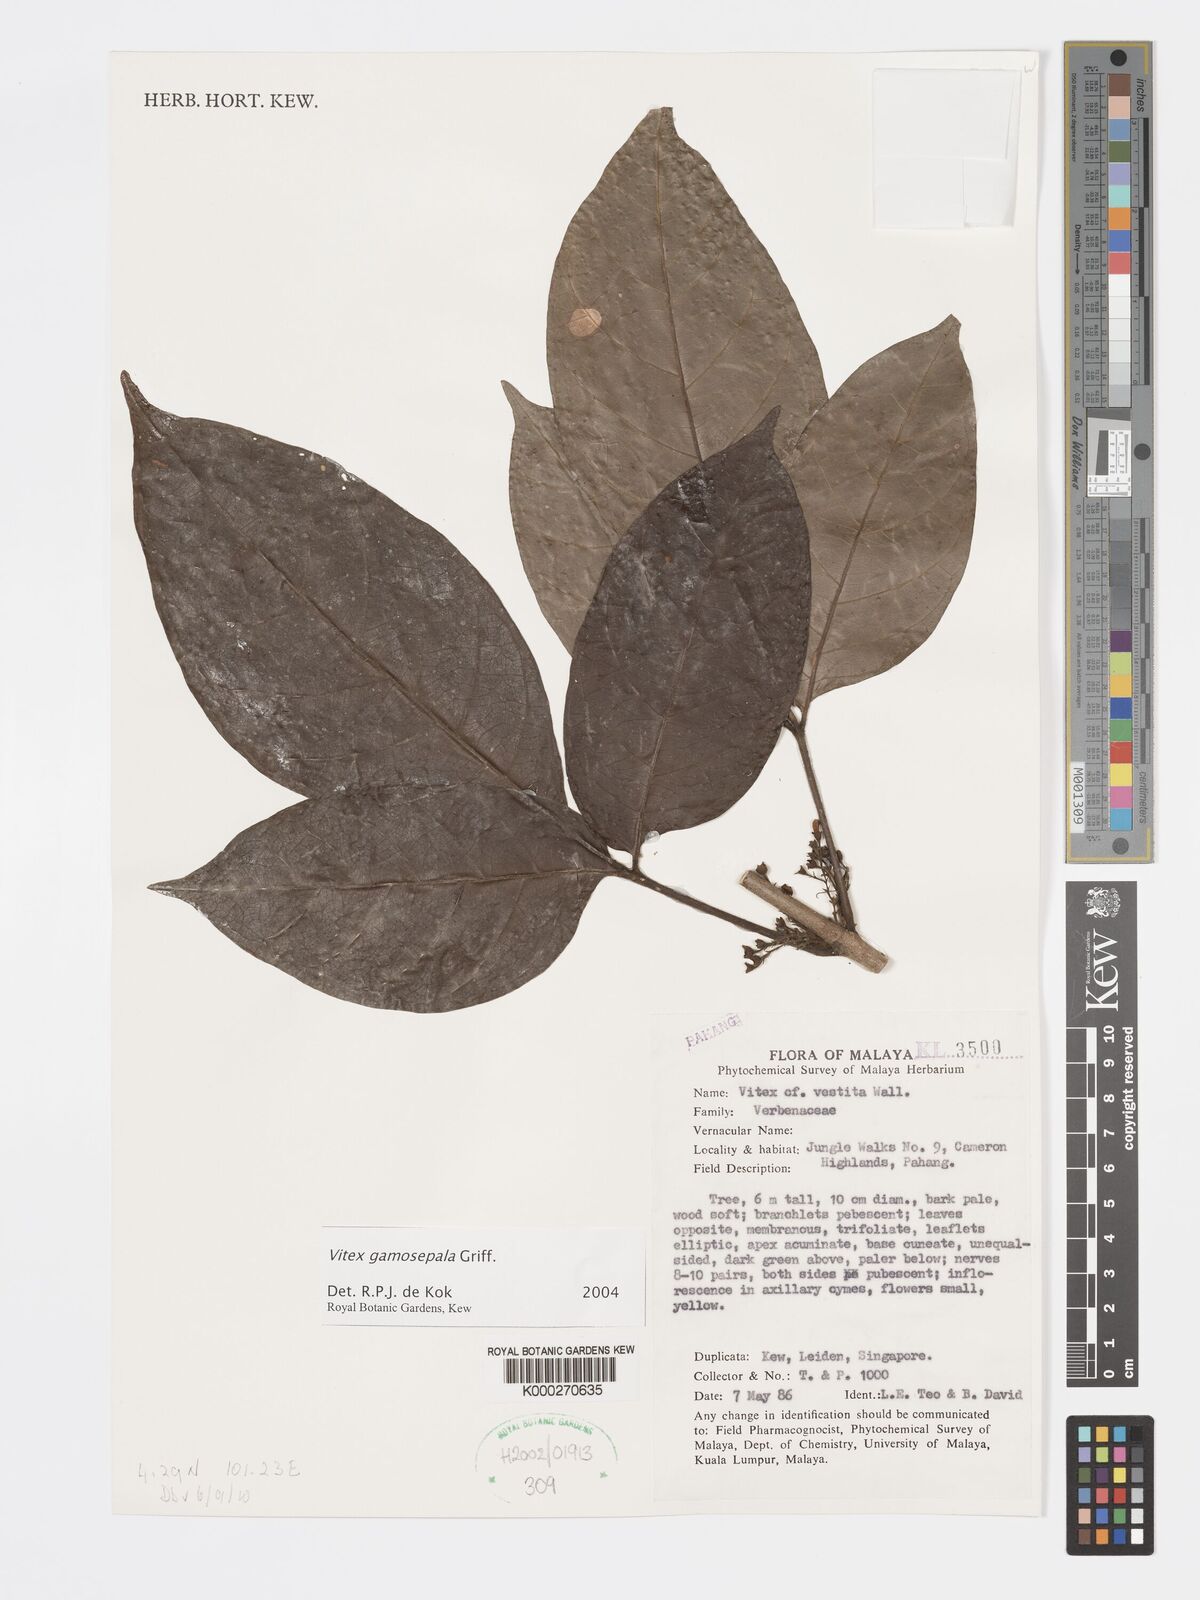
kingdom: Plantae
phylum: Tracheophyta
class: Magnoliopsida
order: Lamiales
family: Lamiaceae
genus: Vitex
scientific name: Vitex gamosepala
